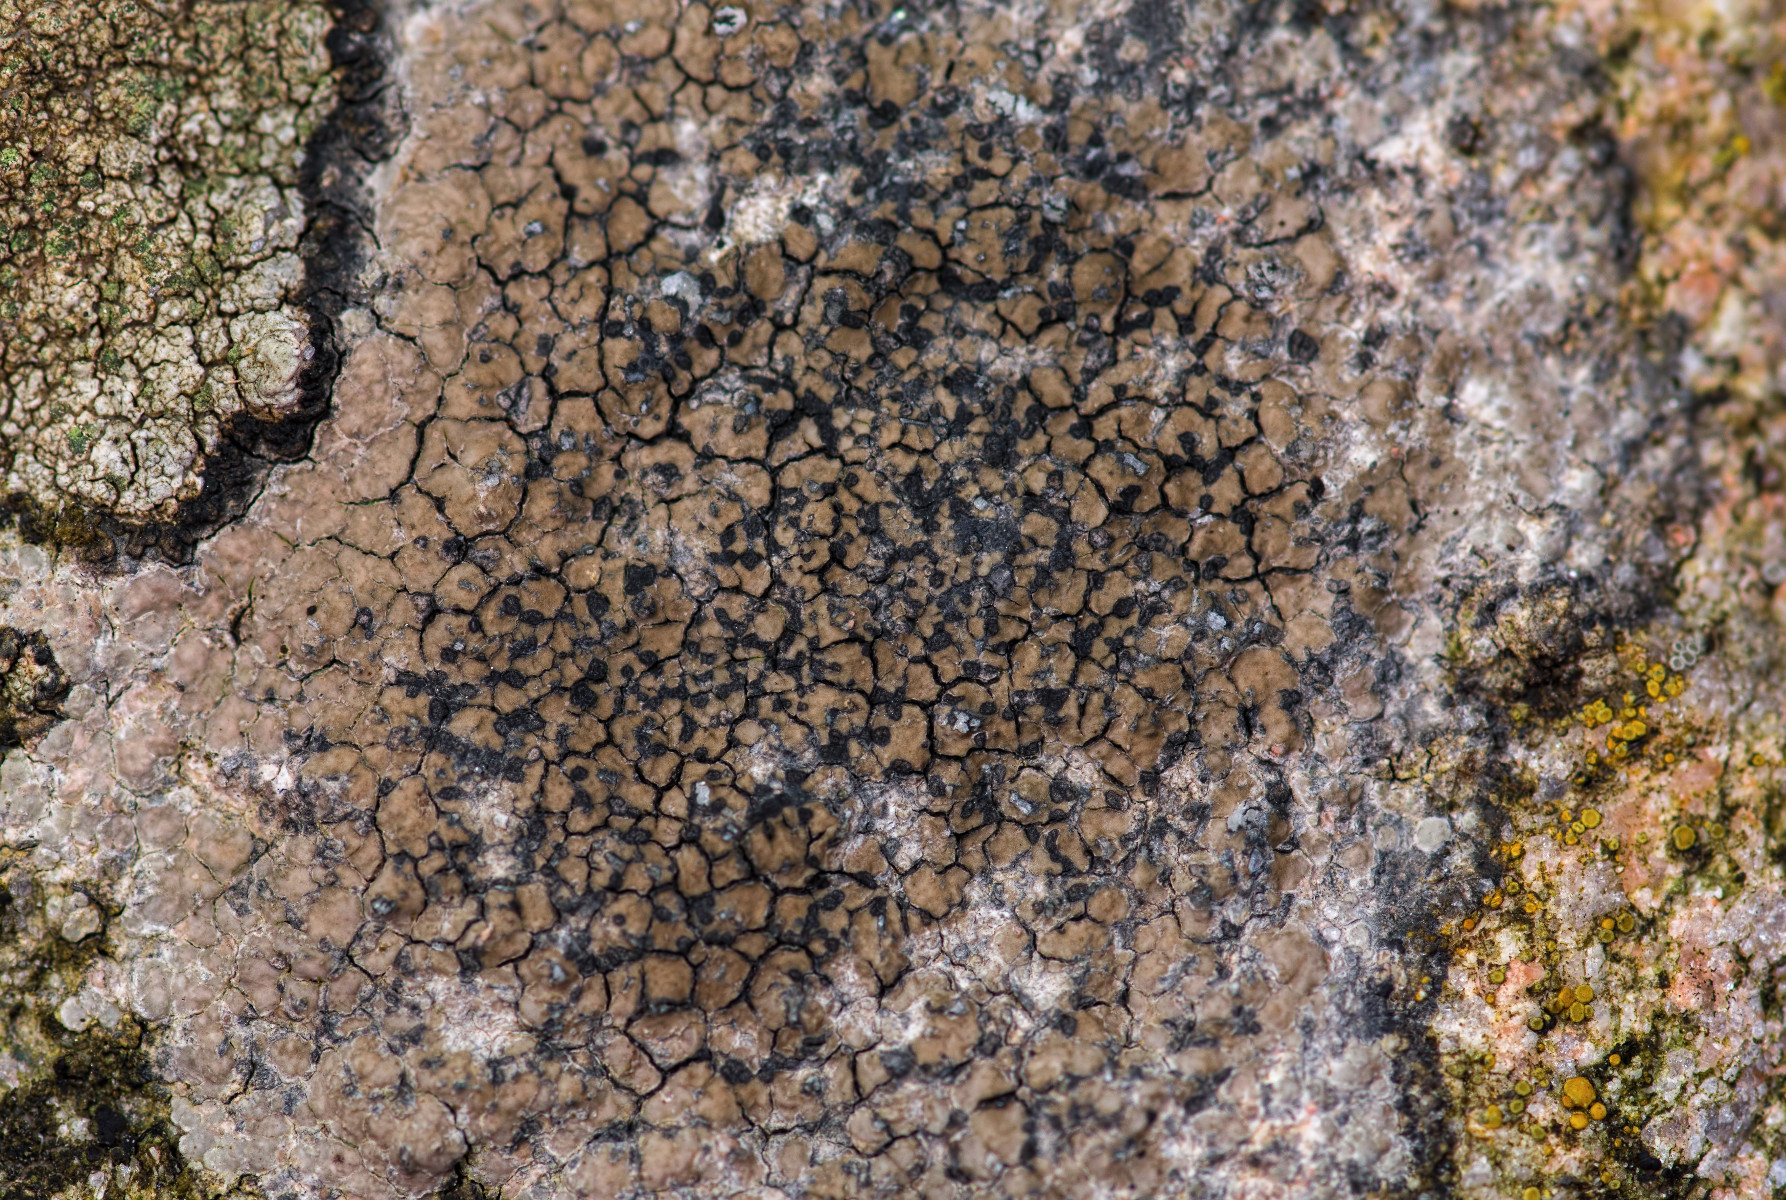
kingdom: Fungi
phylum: Ascomycota
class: Lecanoromycetes
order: Lecideales
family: Lecideaceae
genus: Lecidea
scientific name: Lecidea fuscoatra
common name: rudret skivelav
